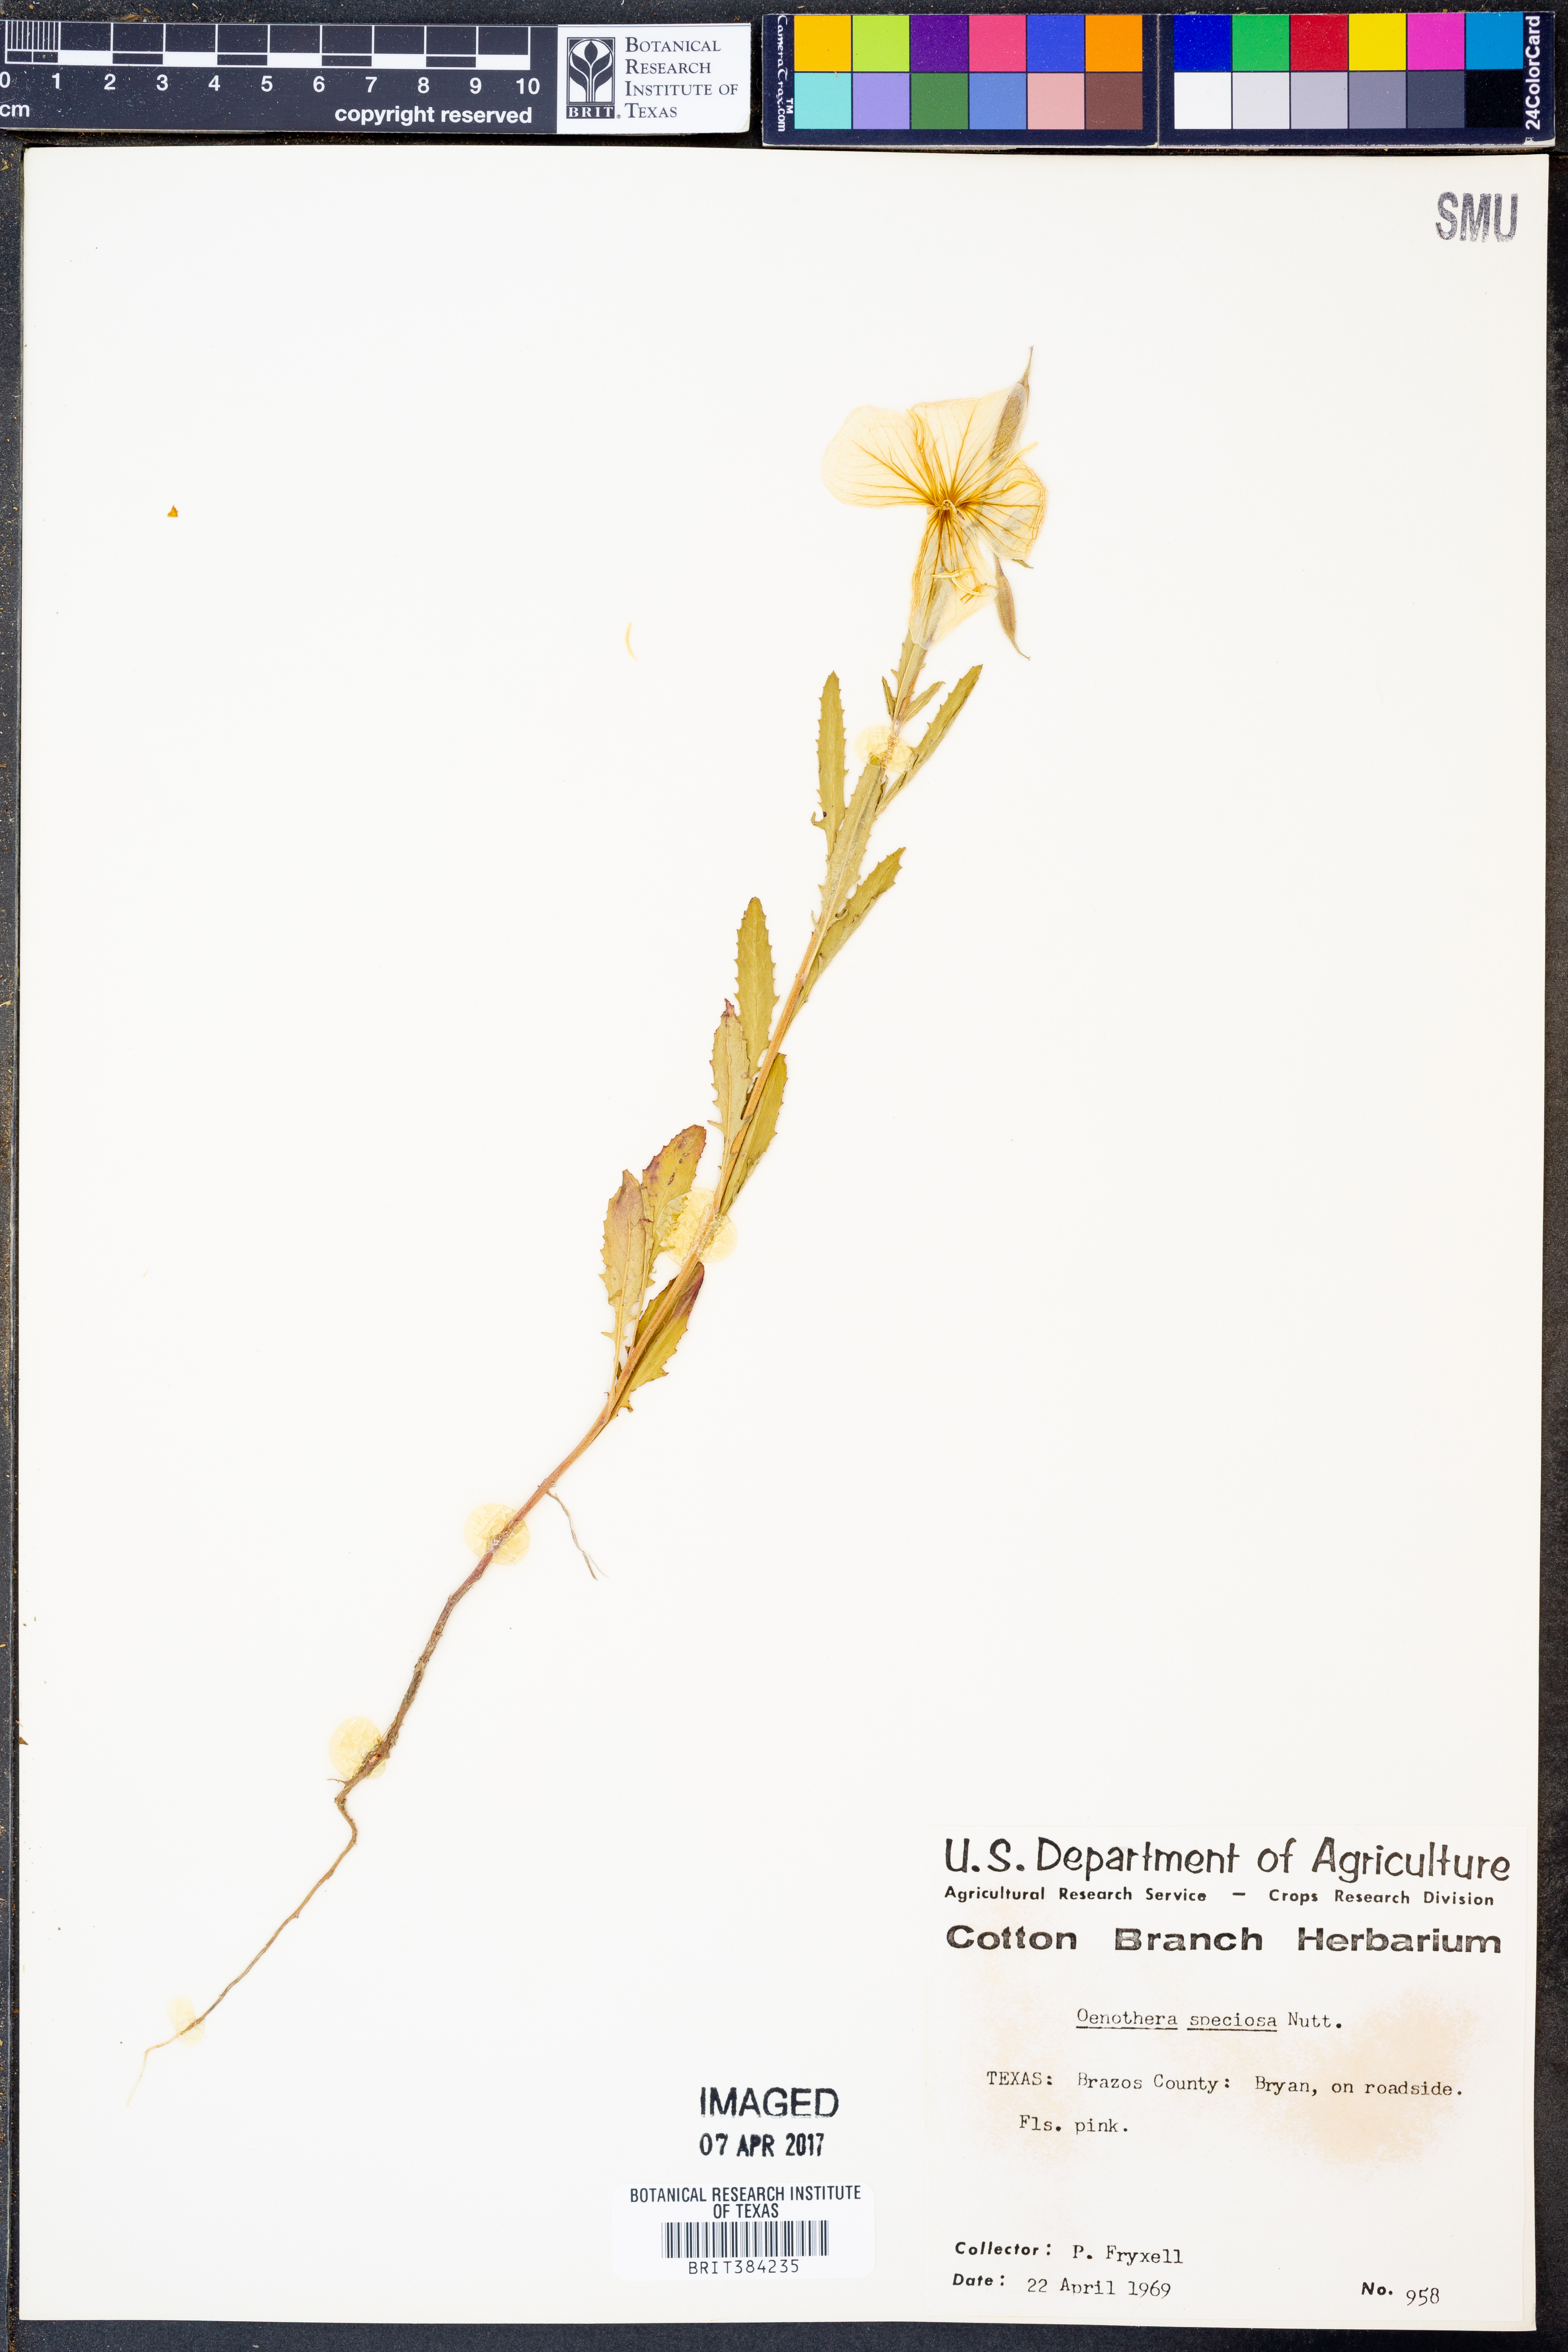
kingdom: Plantae
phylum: Tracheophyta
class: Magnoliopsida
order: Myrtales
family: Onagraceae
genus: Oenothera
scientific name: Oenothera speciosa
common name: White evening-primrose
